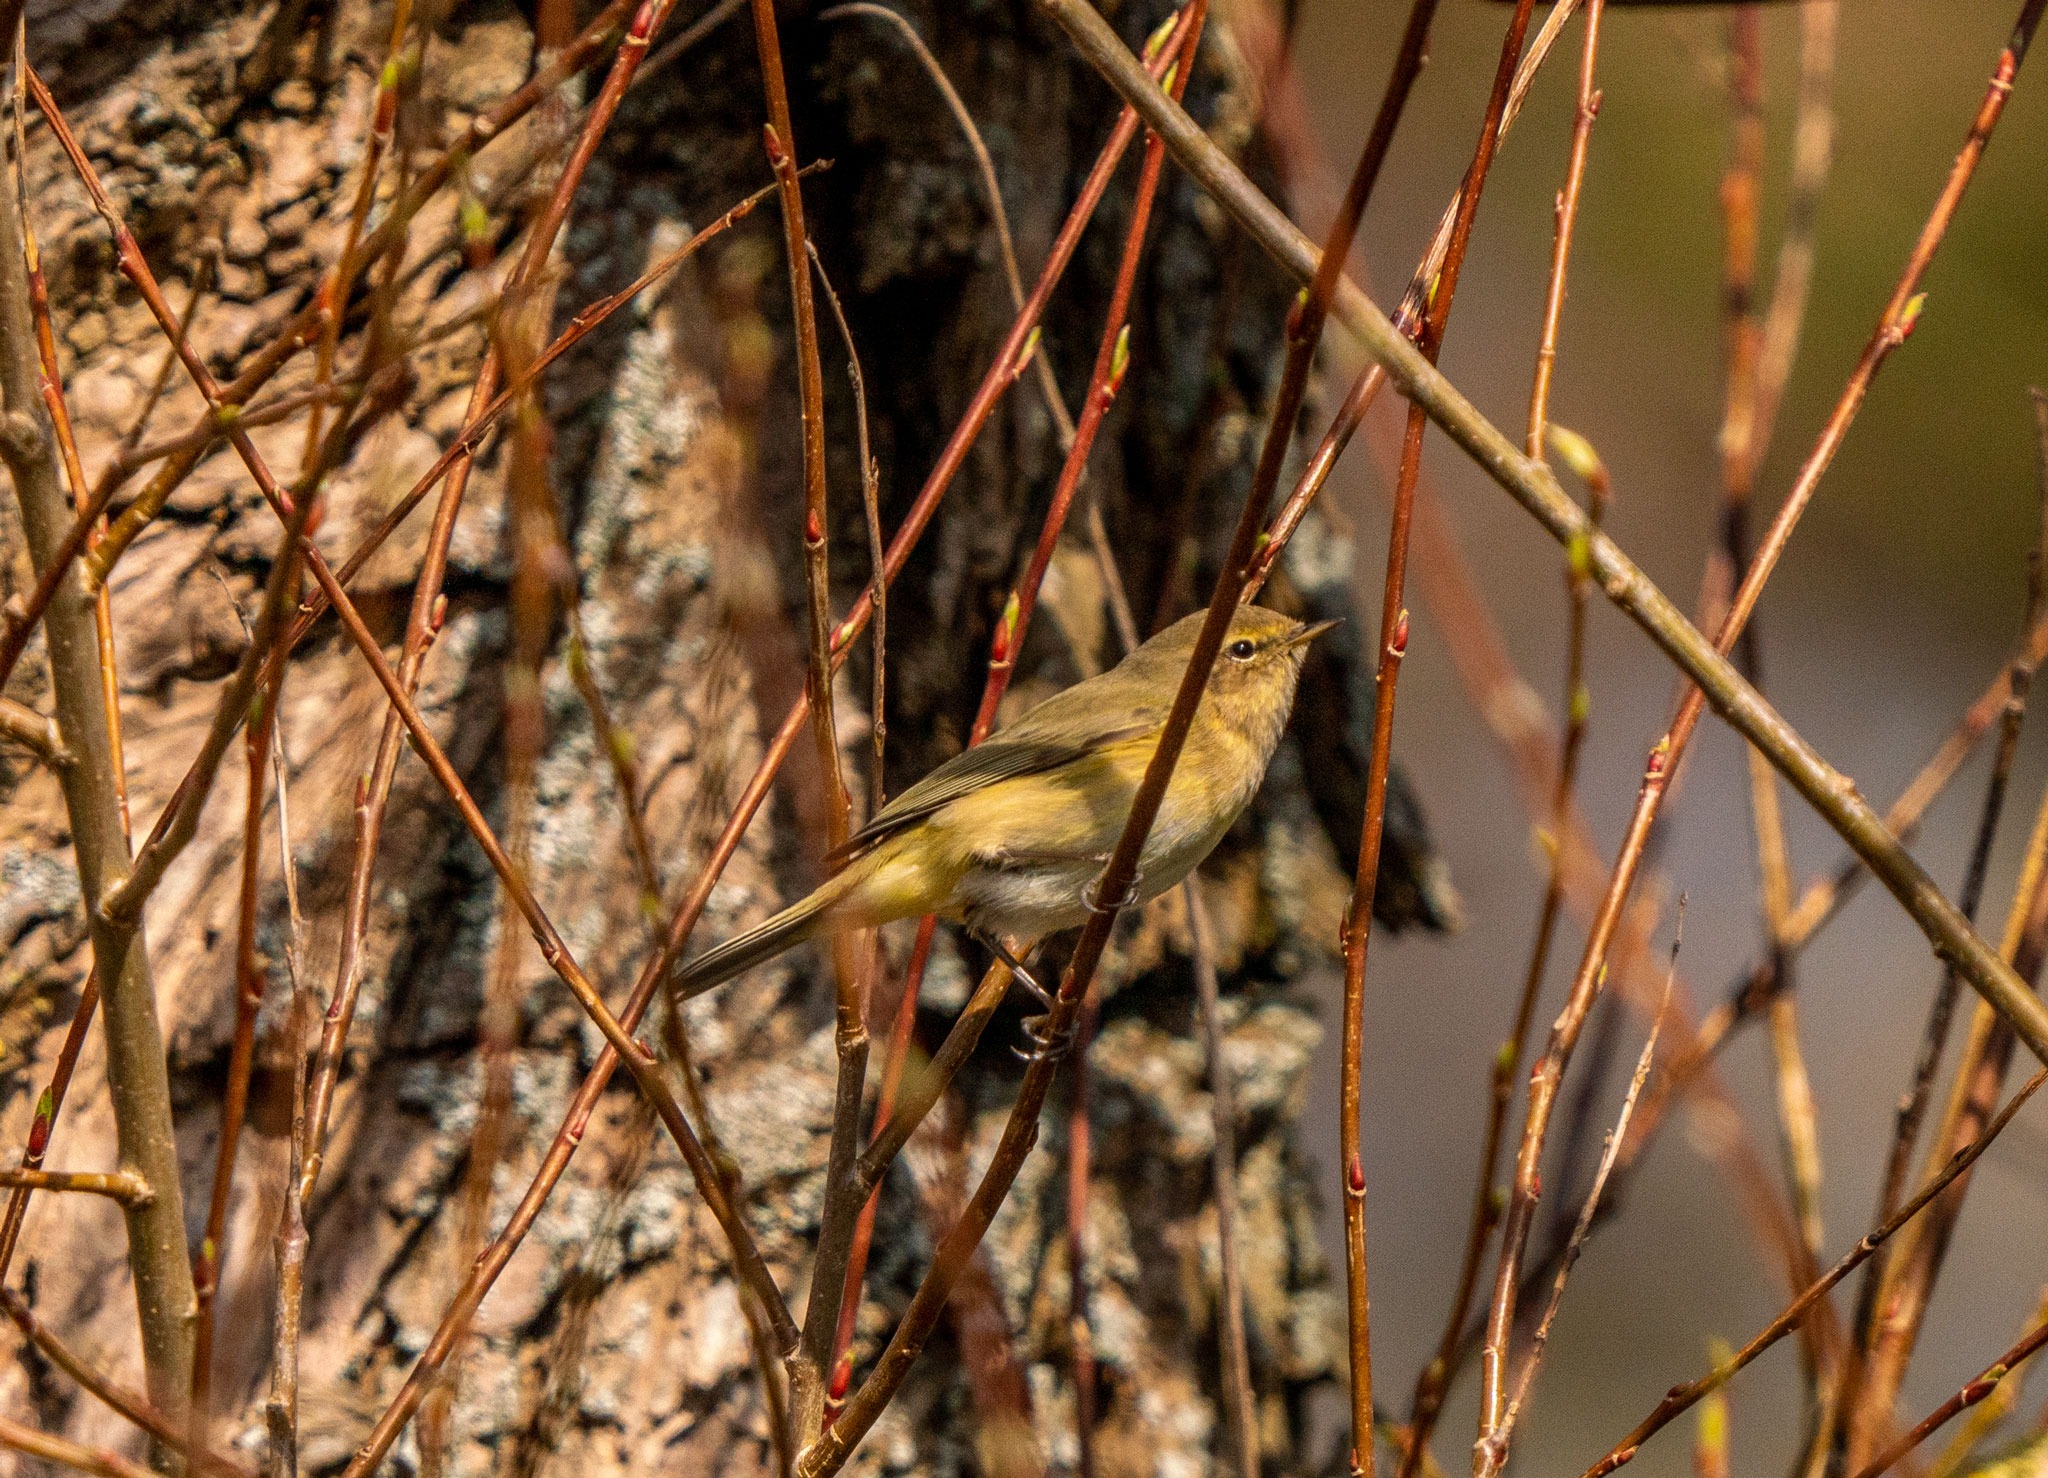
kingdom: Animalia
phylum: Chordata
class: Aves
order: Passeriformes
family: Phylloscopidae
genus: Phylloscopus
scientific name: Phylloscopus collybita
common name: Gransanger
